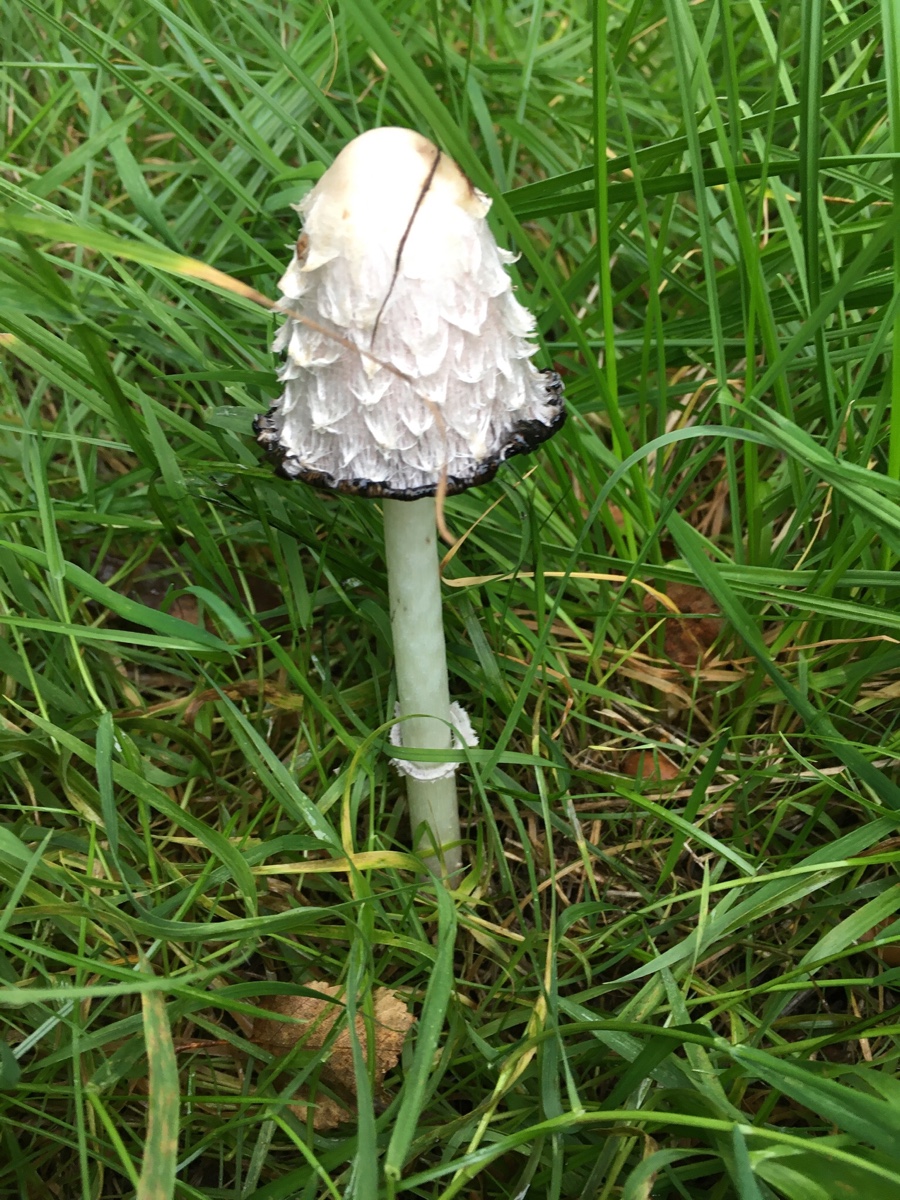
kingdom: Fungi
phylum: Basidiomycota
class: Agaricomycetes
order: Agaricales
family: Agaricaceae
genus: Coprinus
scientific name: Coprinus comatus
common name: stor parykhat
